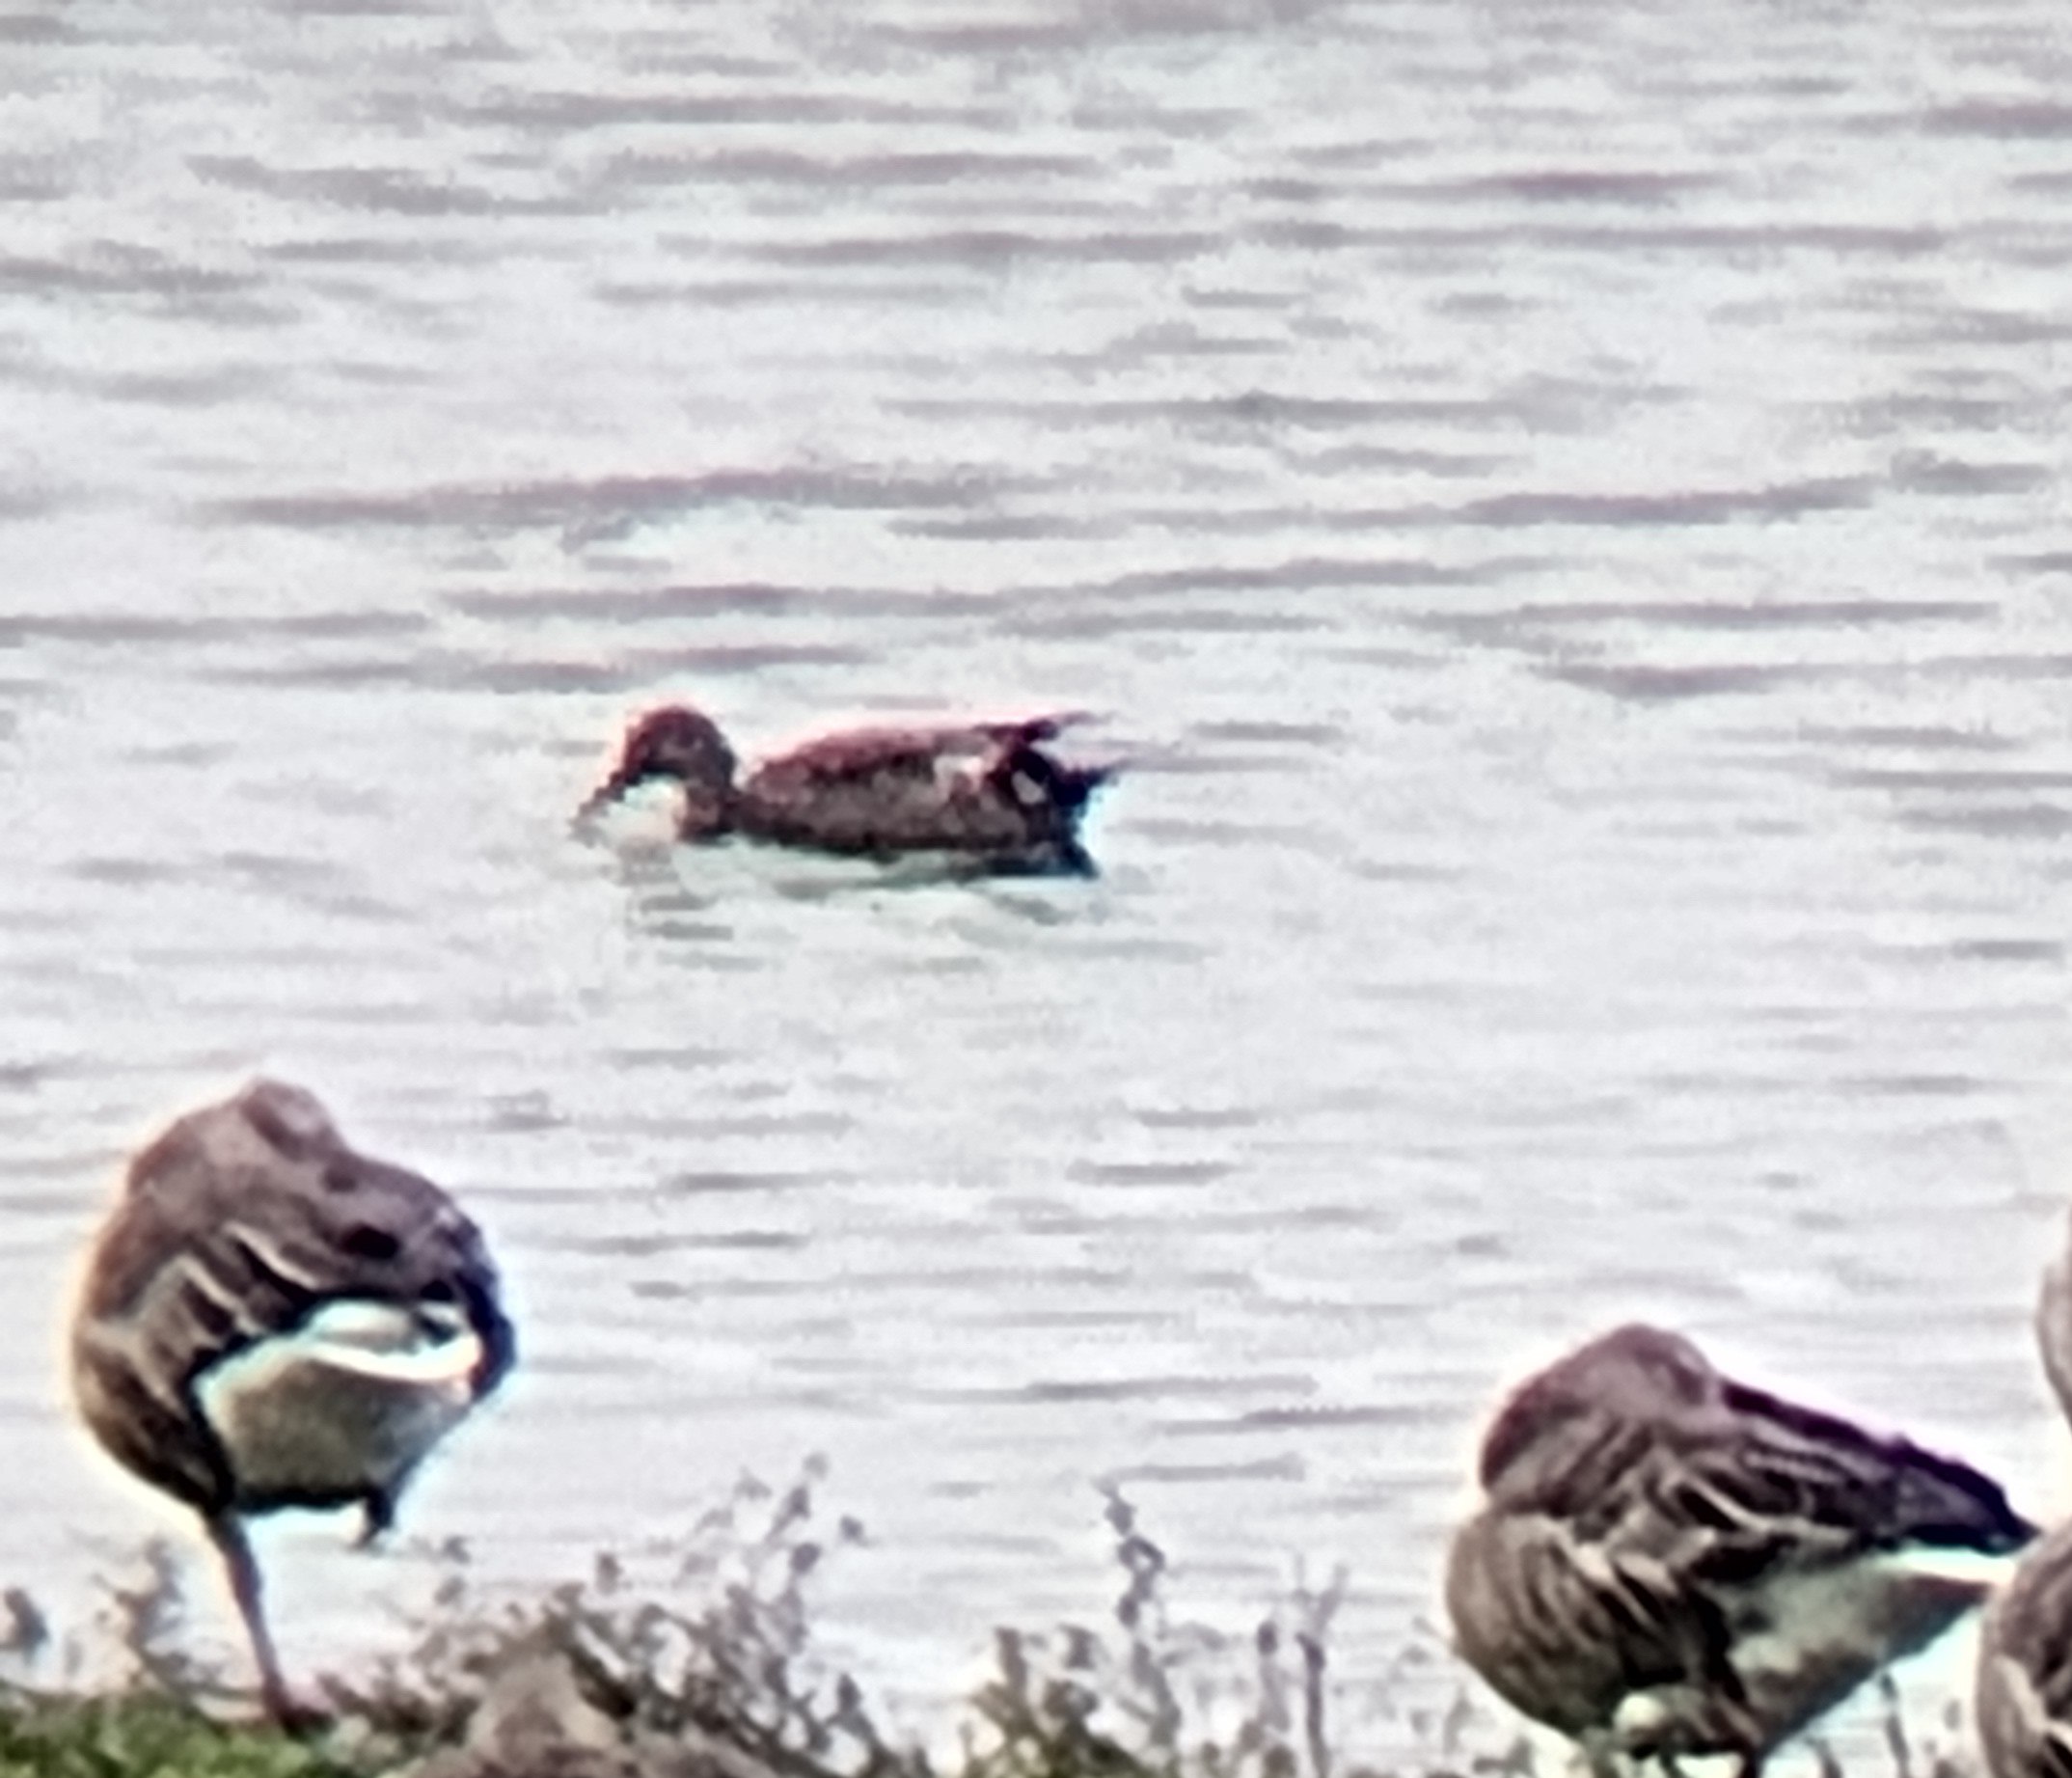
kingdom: Animalia
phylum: Chordata
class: Aves
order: Anseriformes
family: Anatidae
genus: Mareca
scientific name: Mareca strepera
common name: Knarand
